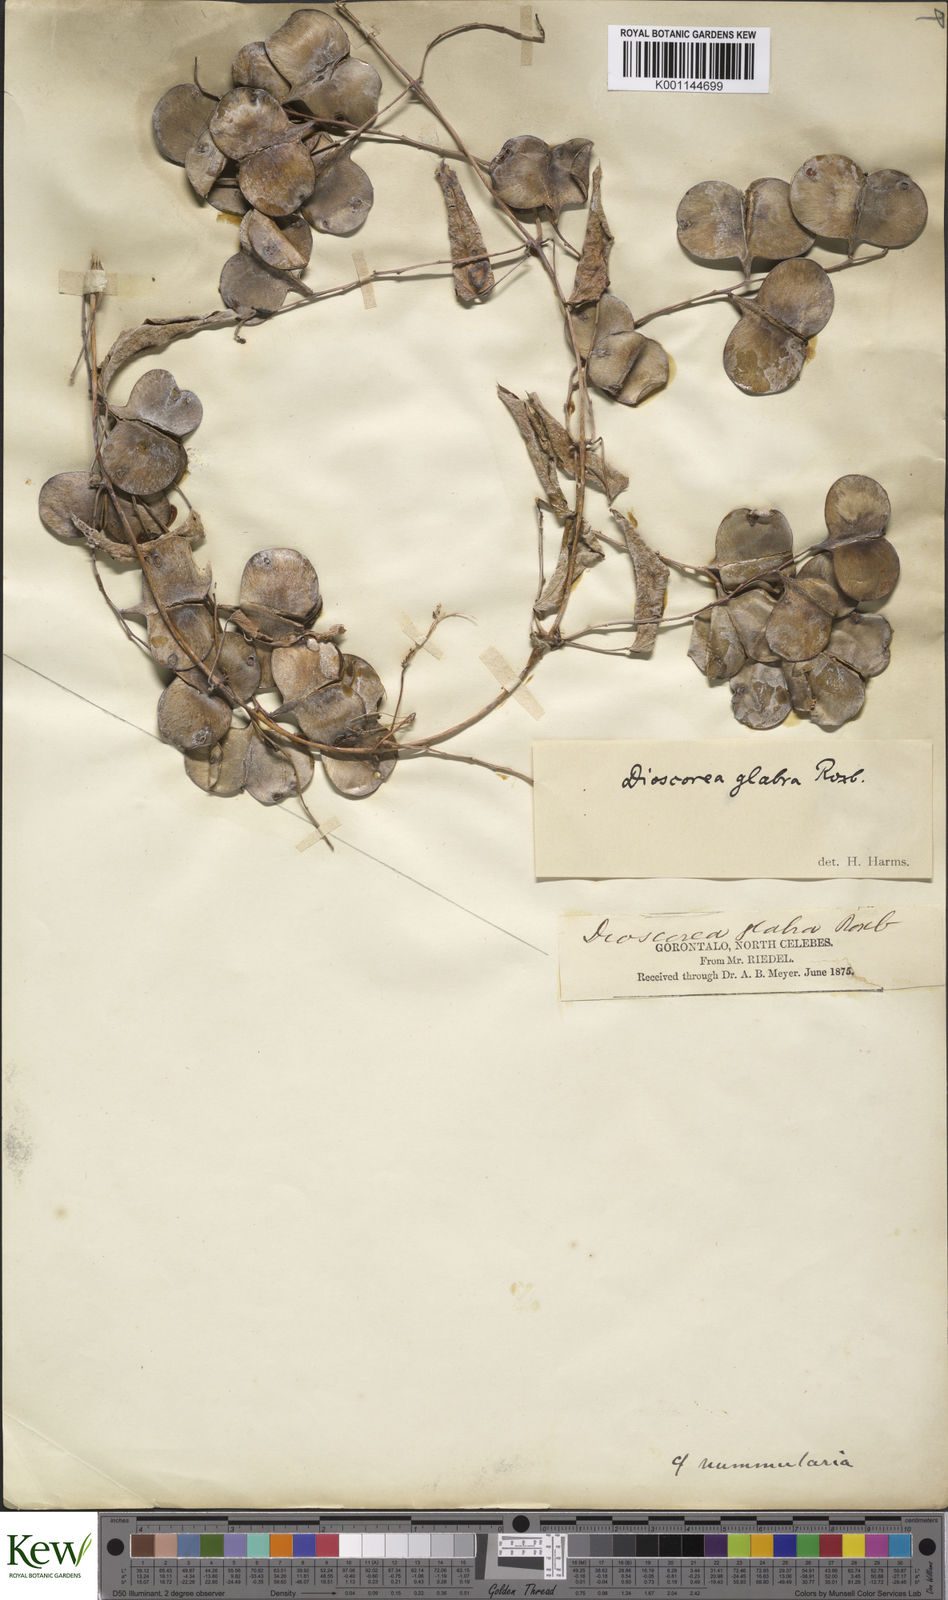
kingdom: Plantae
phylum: Tracheophyta
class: Liliopsida
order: Dioscoreales
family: Dioscoreaceae
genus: Dioscorea
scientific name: Dioscorea
